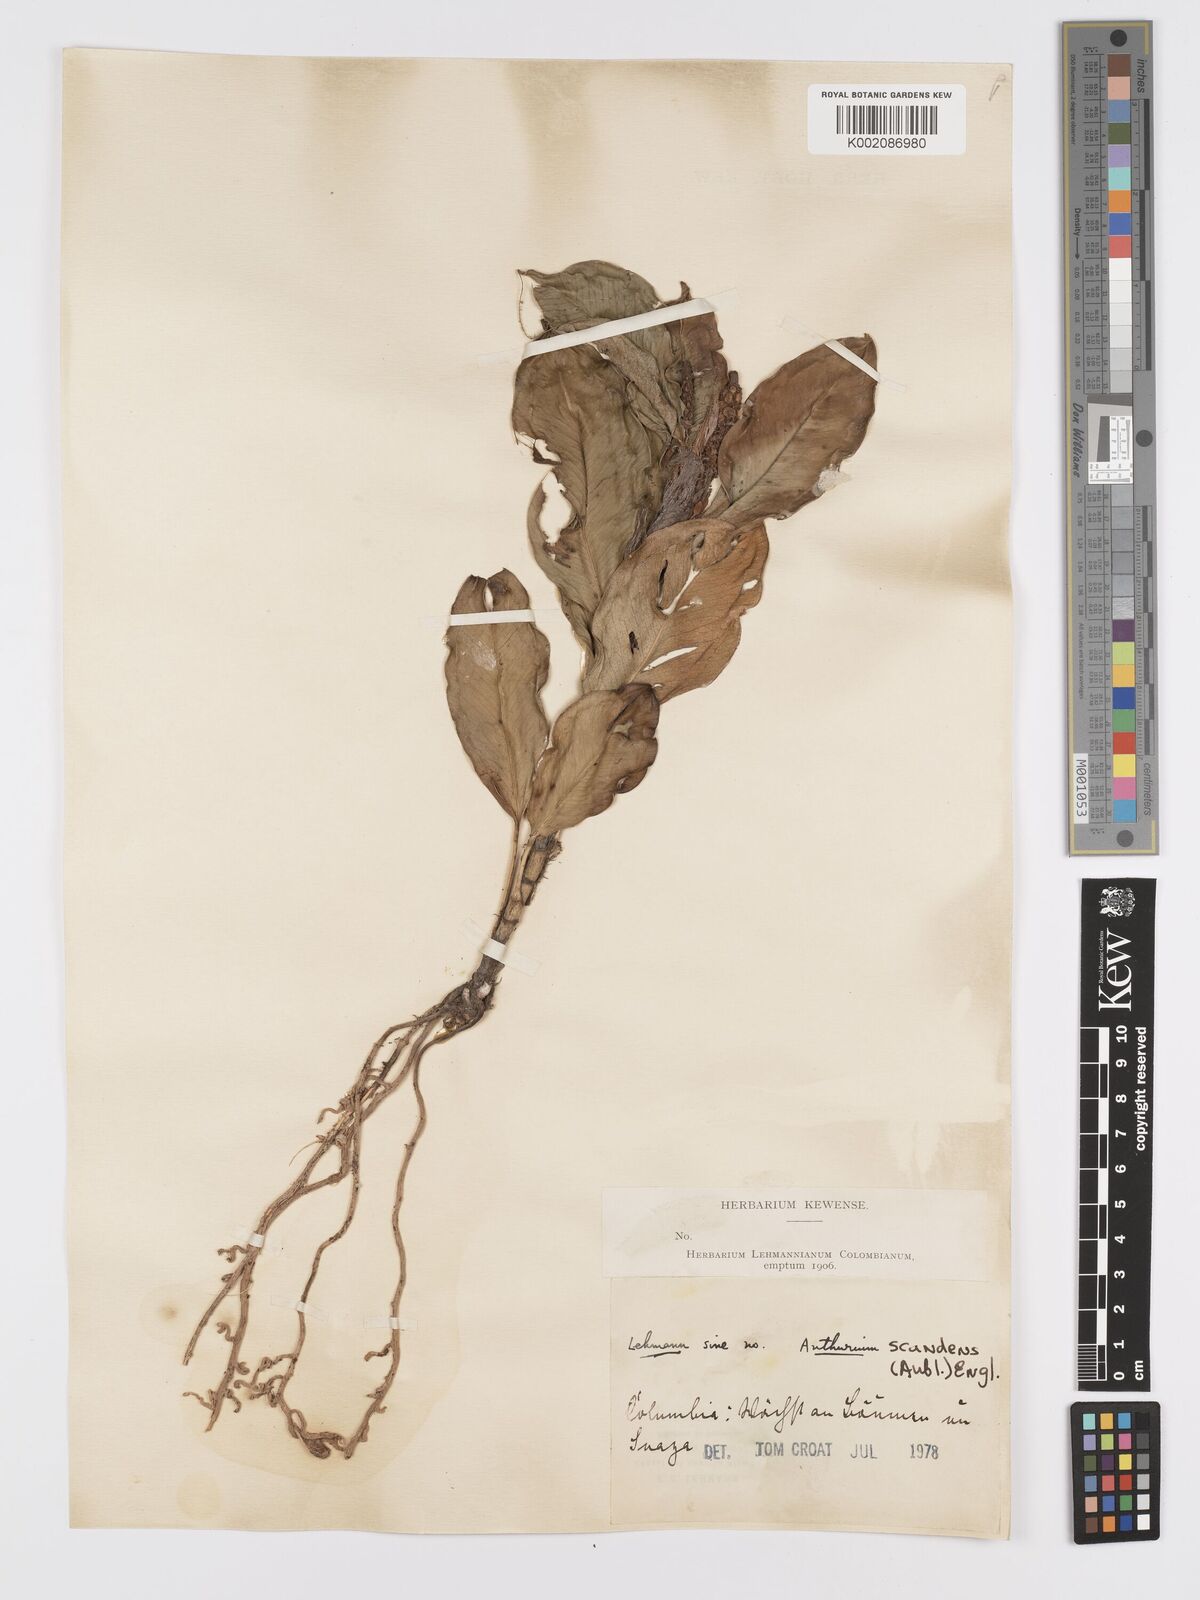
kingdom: Plantae
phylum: Tracheophyta
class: Liliopsida
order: Alismatales
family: Araceae
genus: Anthurium
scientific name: Anthurium scandens
